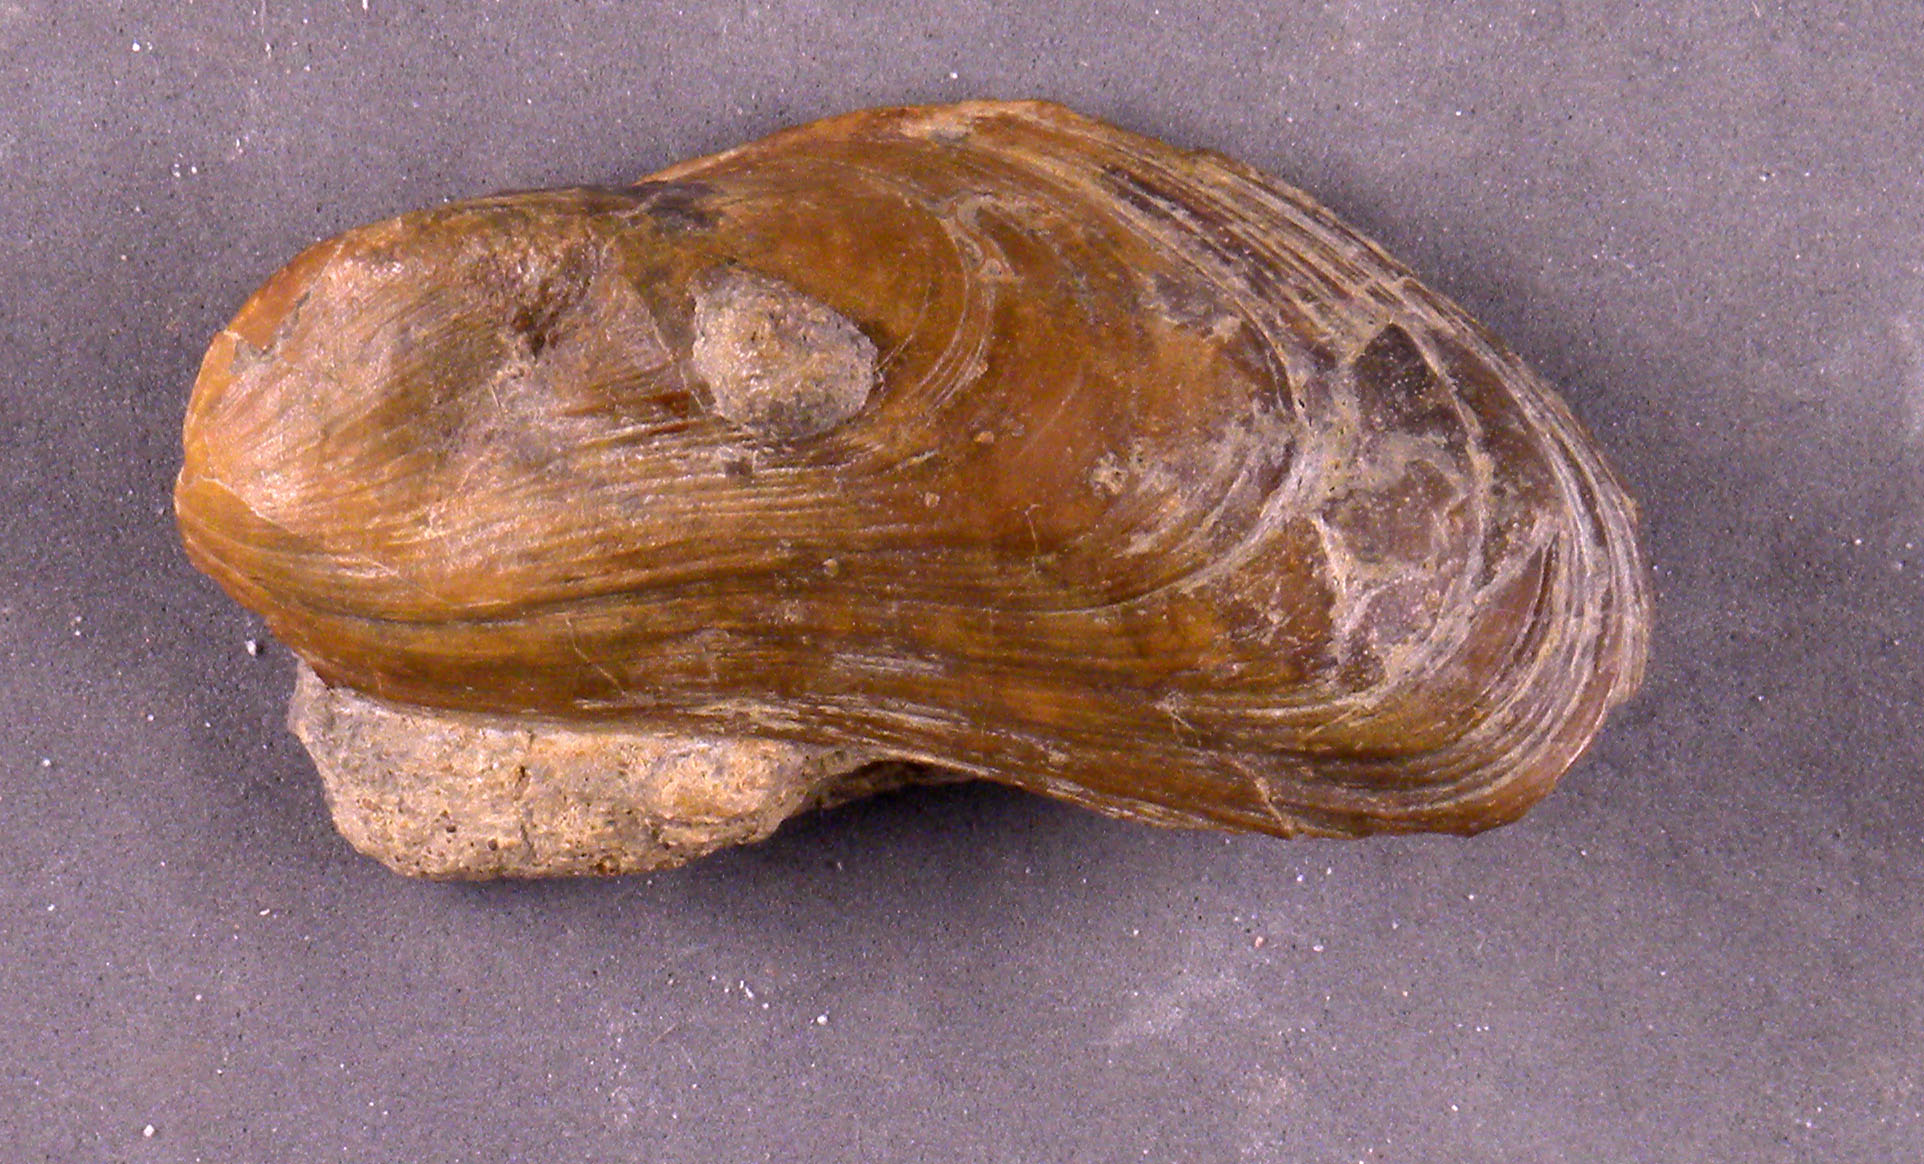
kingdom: Animalia
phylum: Mollusca
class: Bivalvia
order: Mytilida
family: Mytilidae
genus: Modiolus
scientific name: Modiolus
